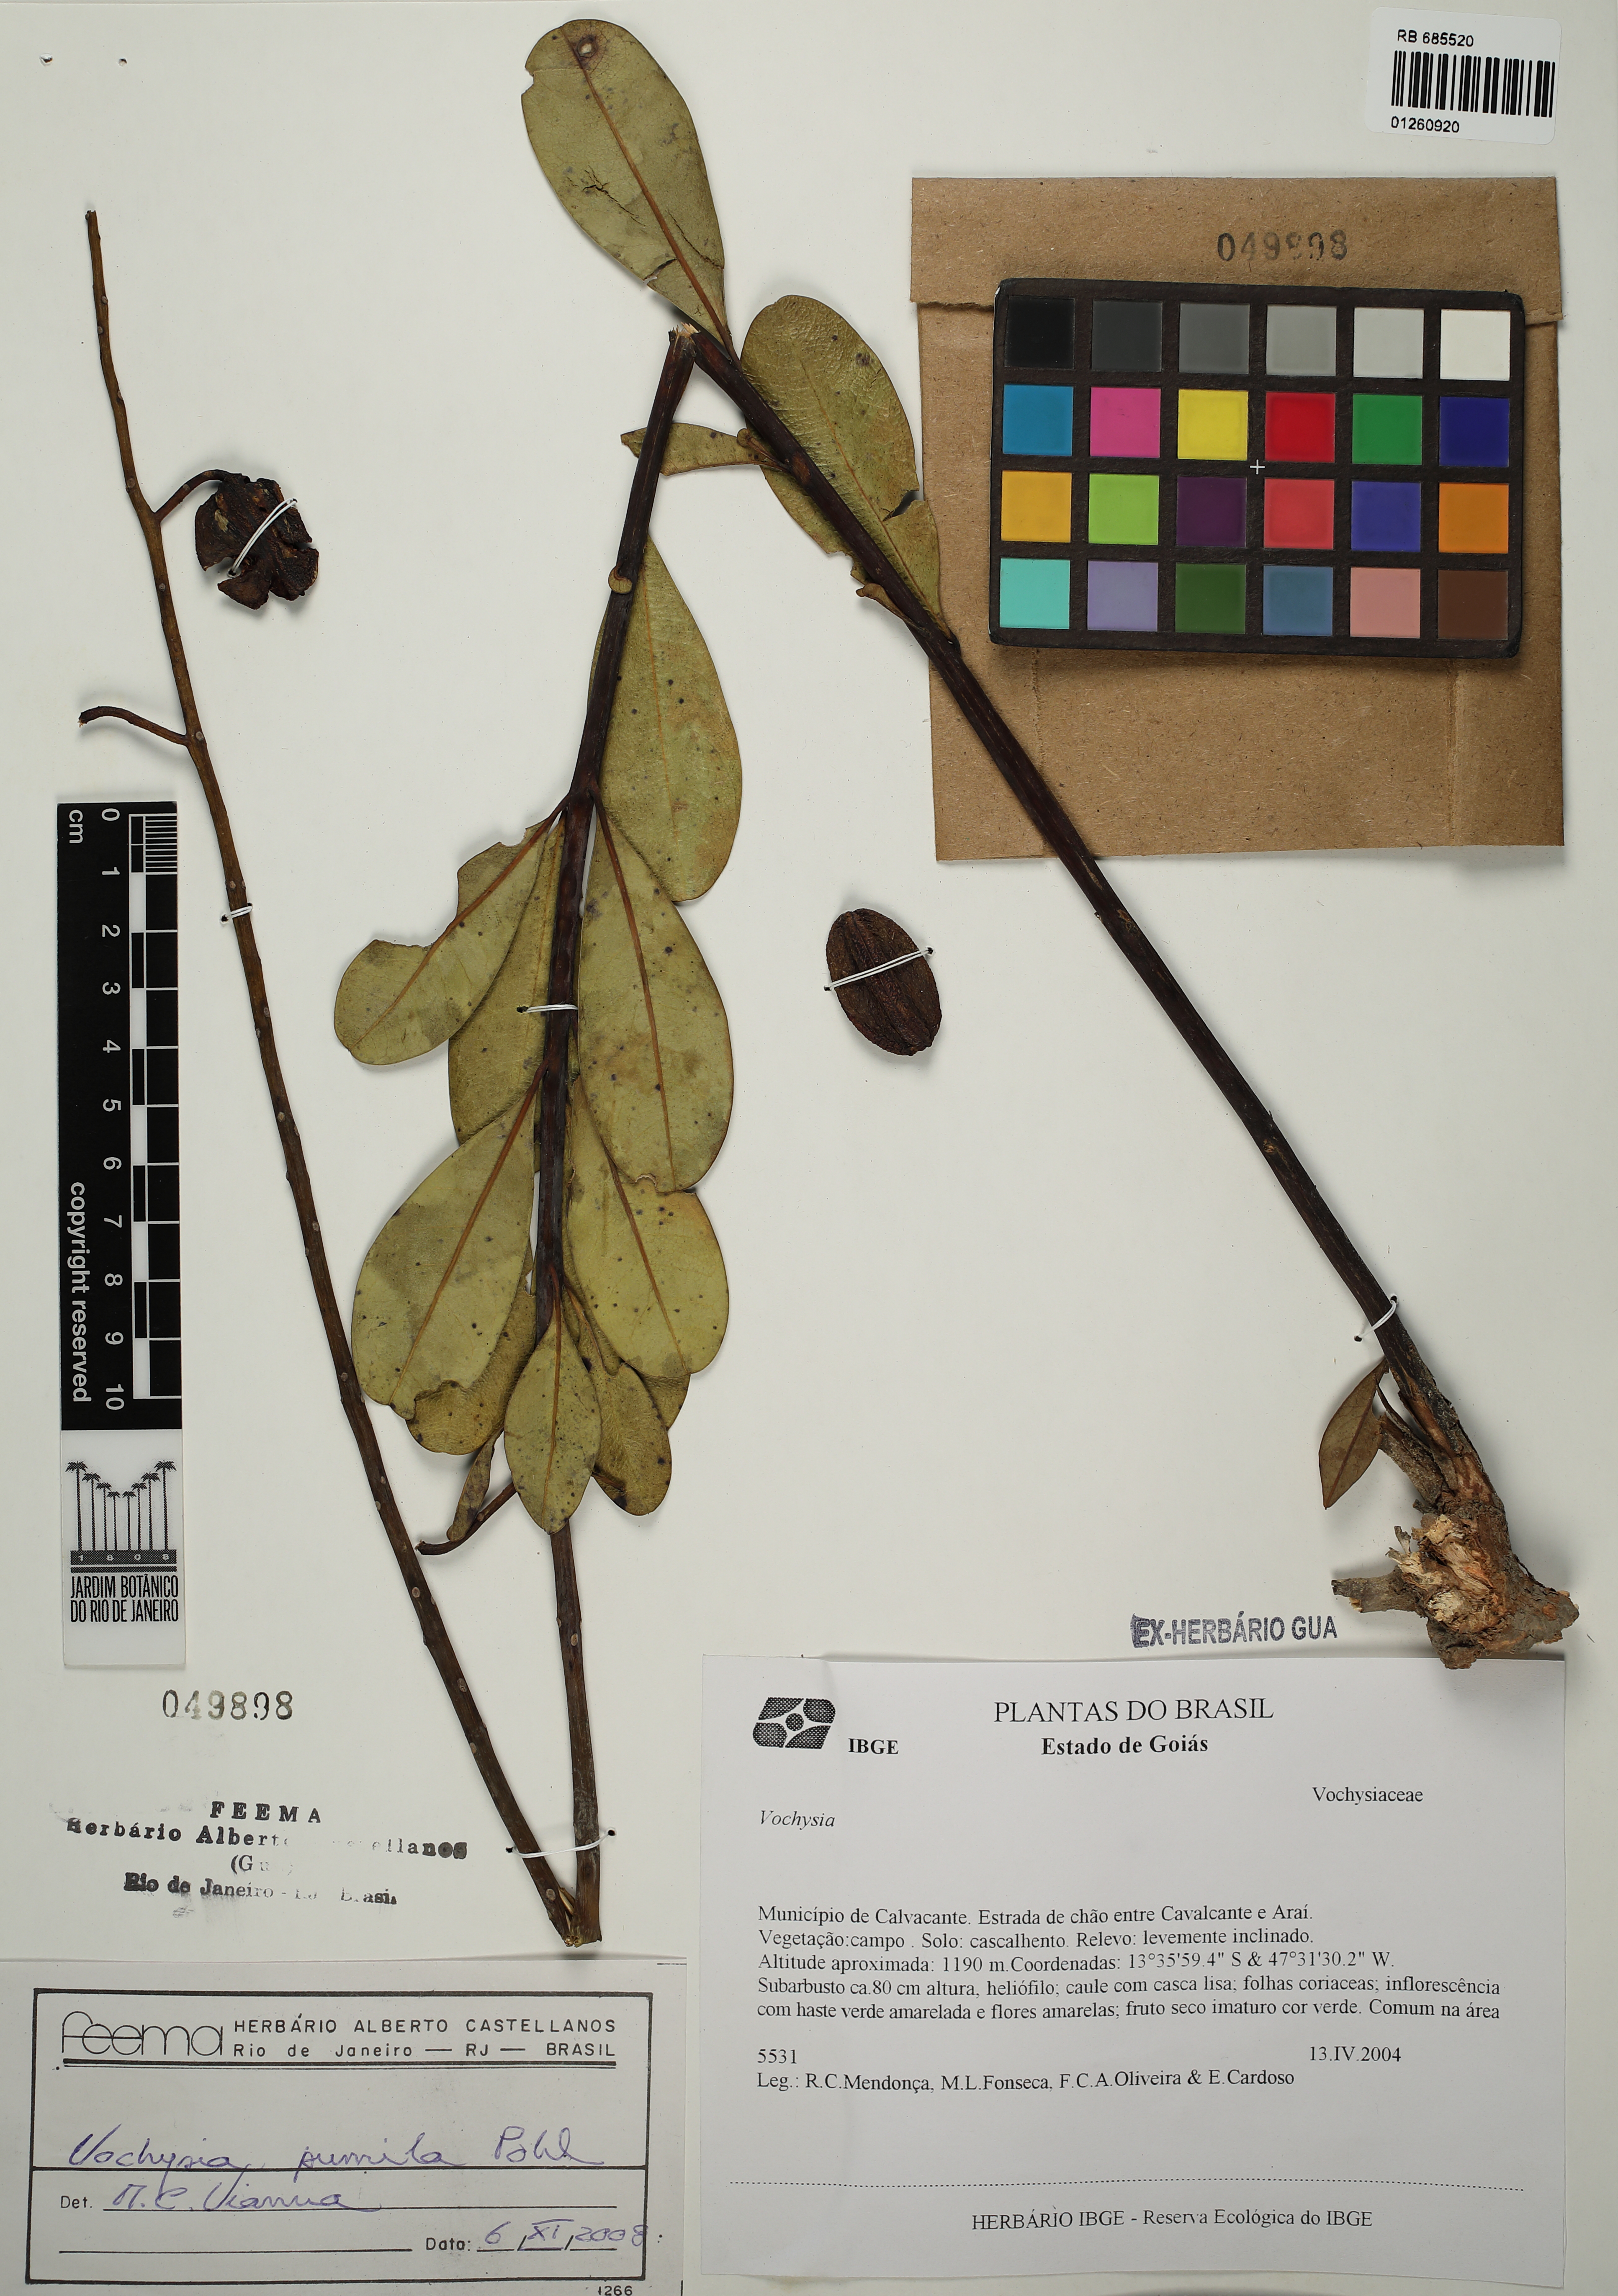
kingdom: Plantae
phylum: Tracheophyta
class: Magnoliopsida
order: Myrtales
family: Vochysiaceae
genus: Vochysia
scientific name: Vochysia pumila
